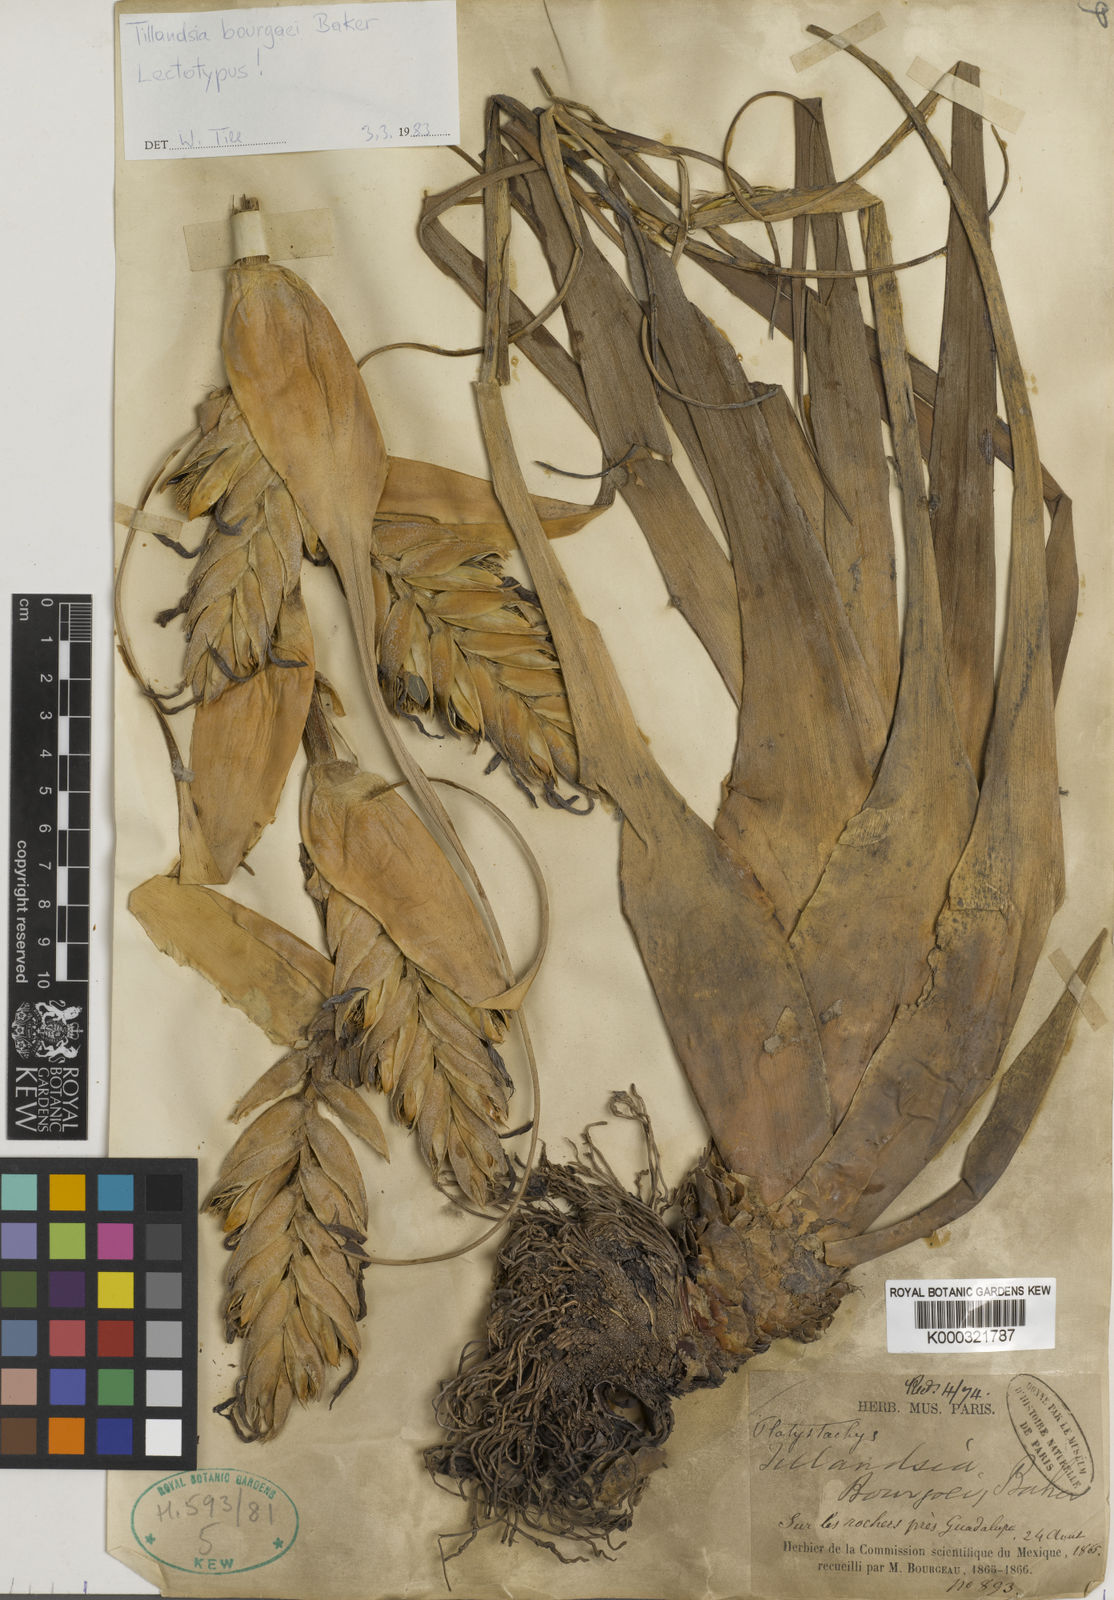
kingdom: Plantae
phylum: Tracheophyta
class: Liliopsida
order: Poales
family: Bromeliaceae
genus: Tillandsia
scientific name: Tillandsia bourgaei
